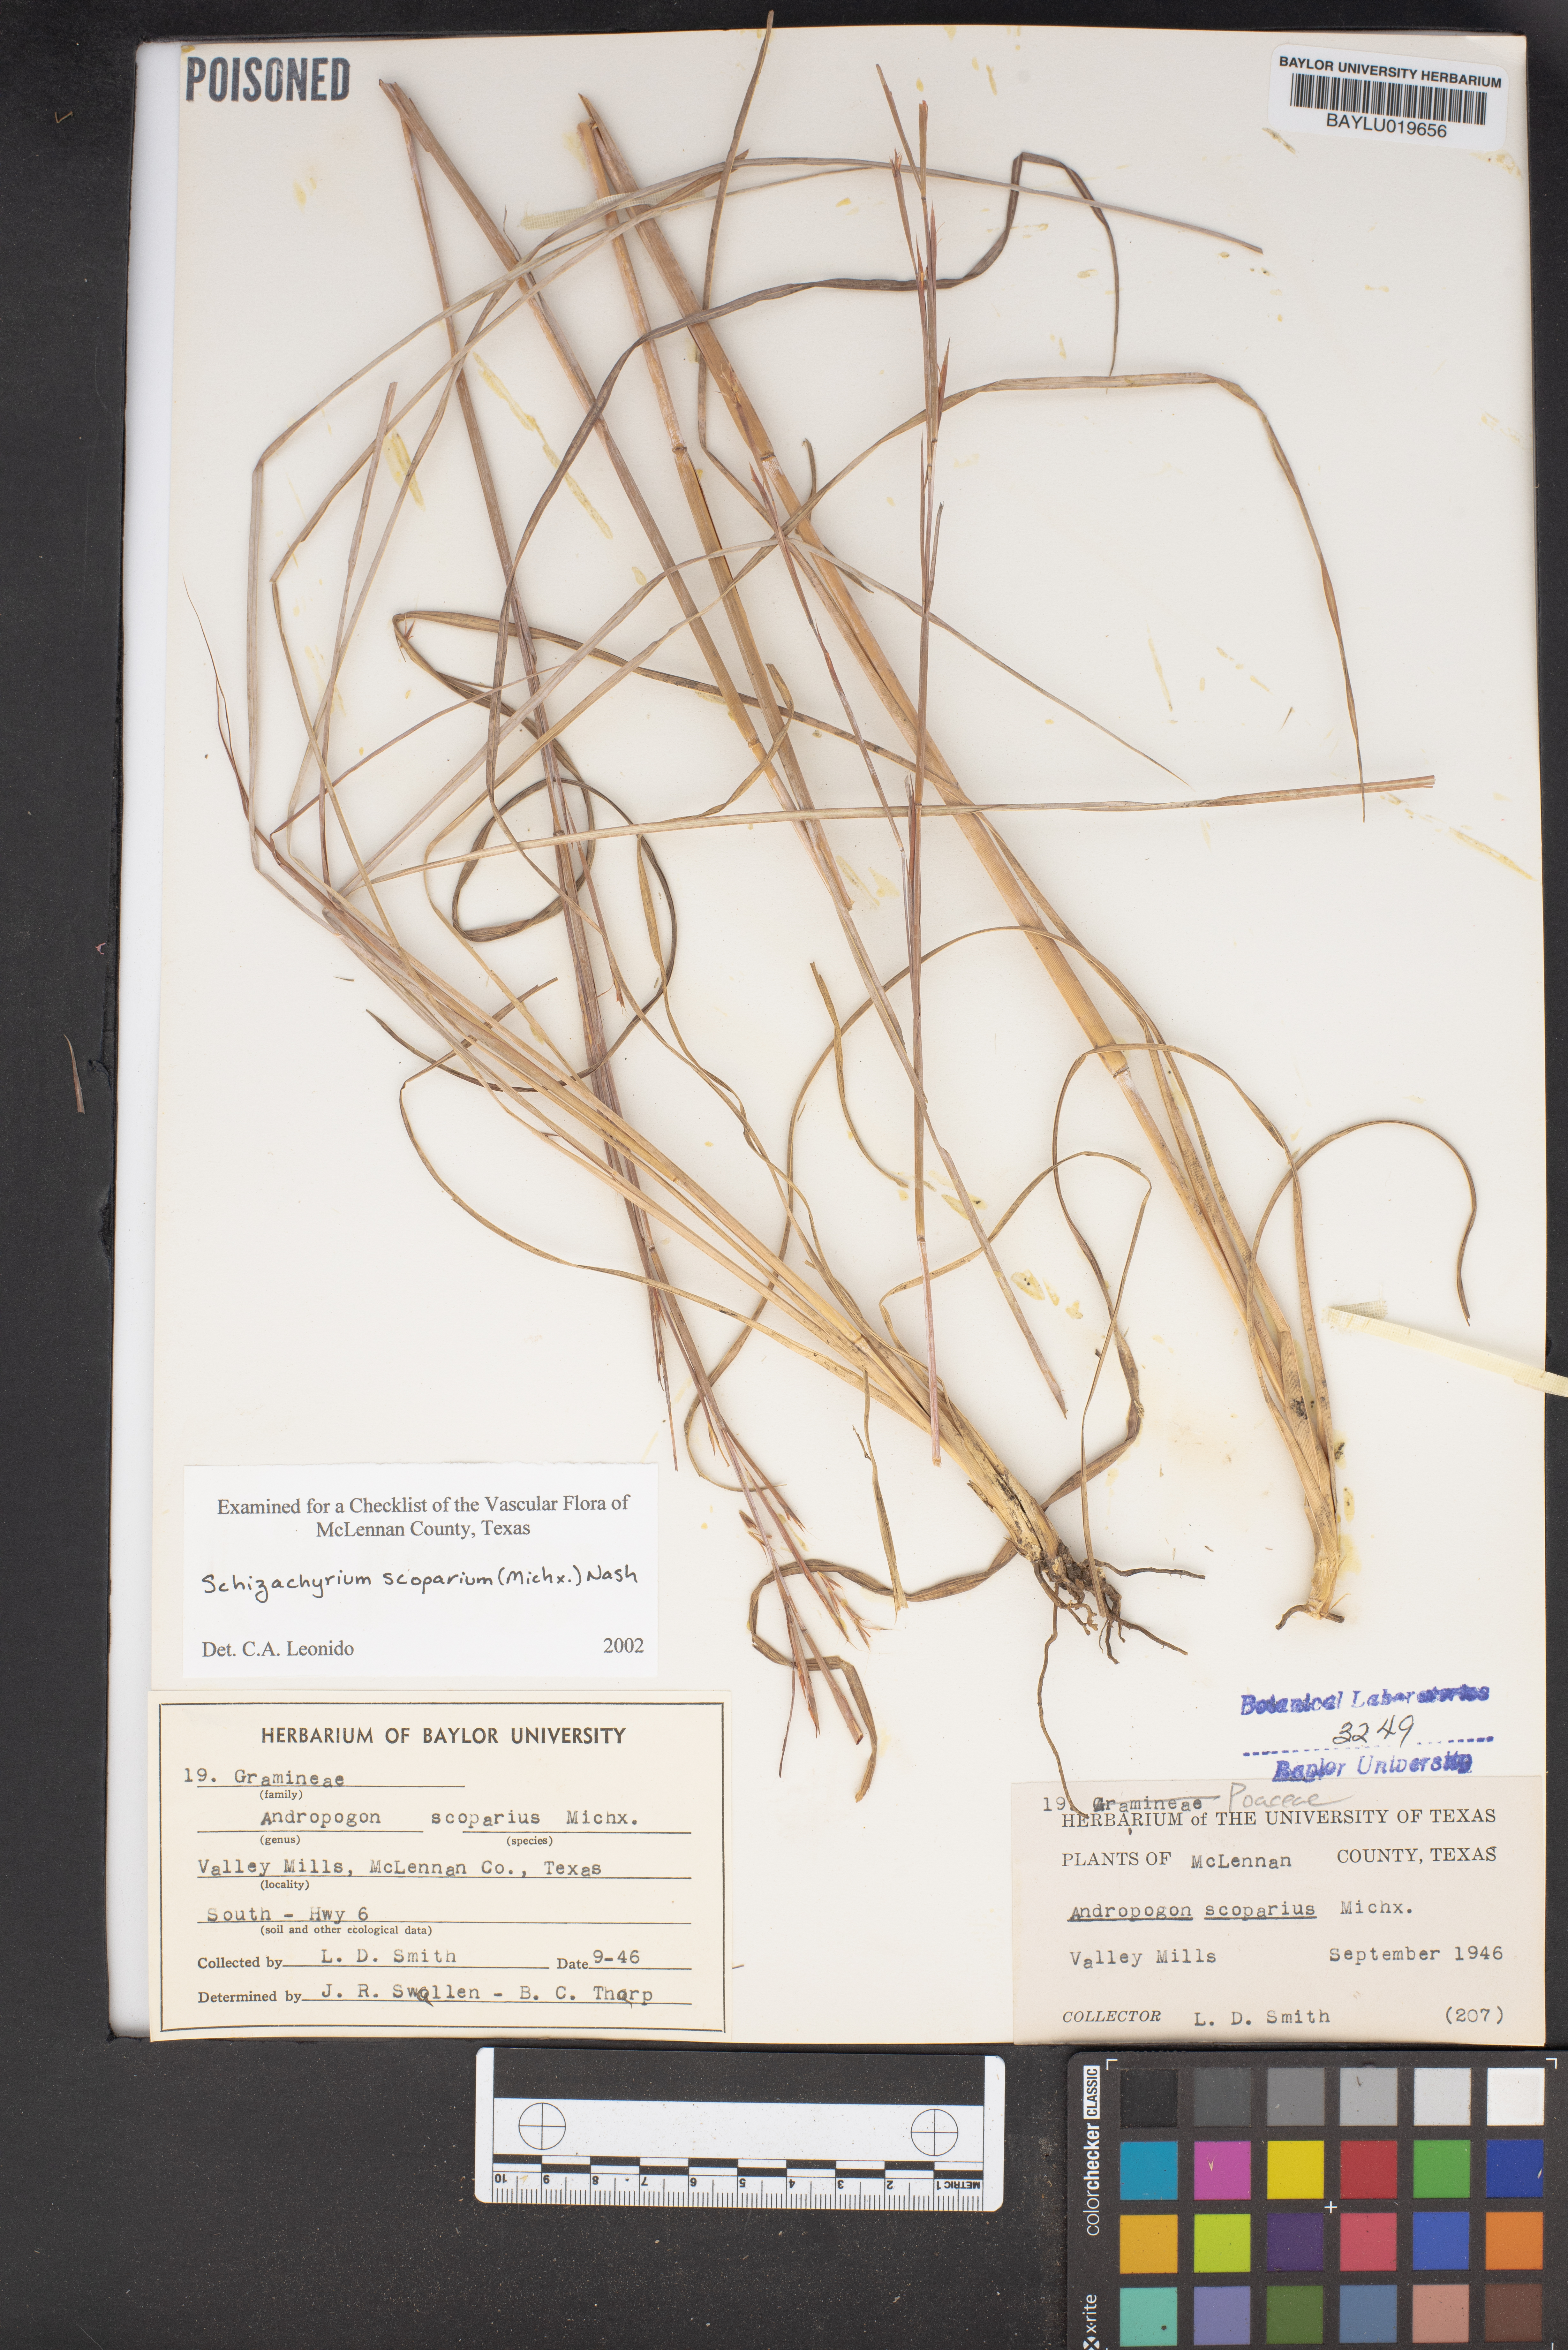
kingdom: Plantae
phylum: Tracheophyta
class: Liliopsida
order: Poales
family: Poaceae
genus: Schizachyrium
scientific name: Schizachyrium scoparium
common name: Little bluestem
